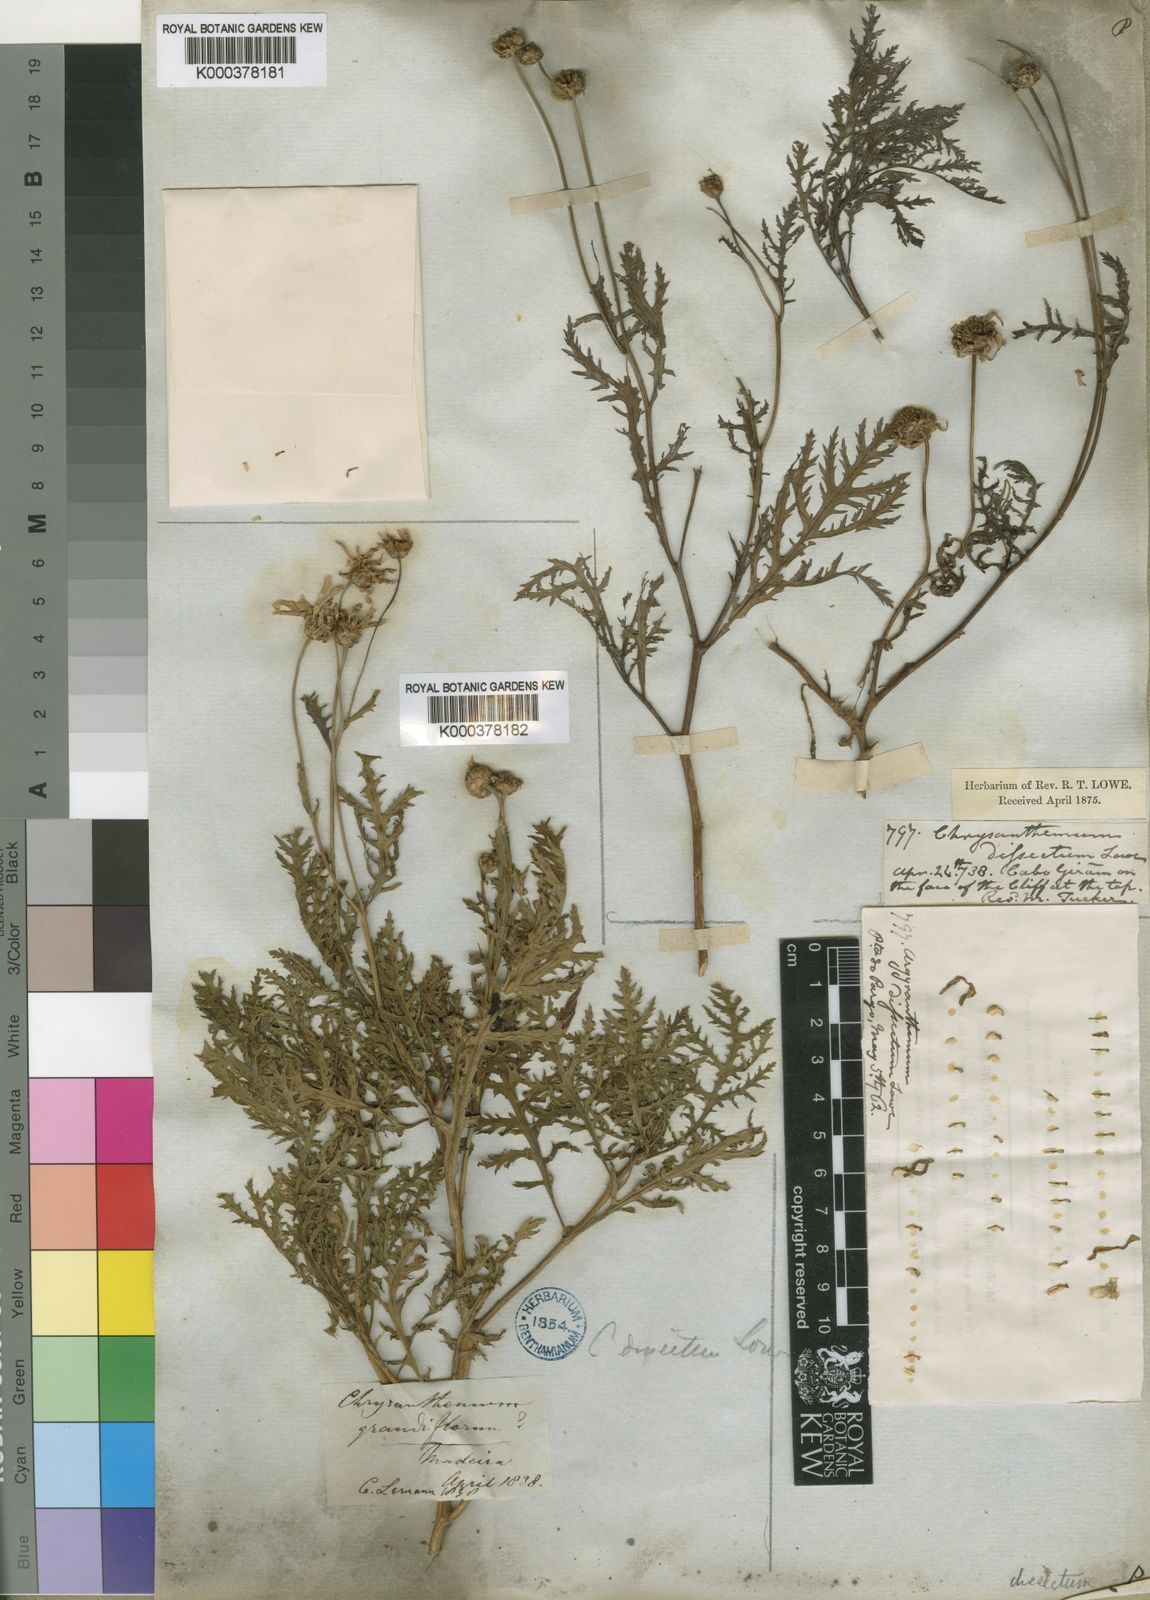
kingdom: Plantae
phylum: Tracheophyta
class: Magnoliopsida
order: Asterales
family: Asteraceae
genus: Argyranthemum
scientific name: Argyranthemum dissectum
